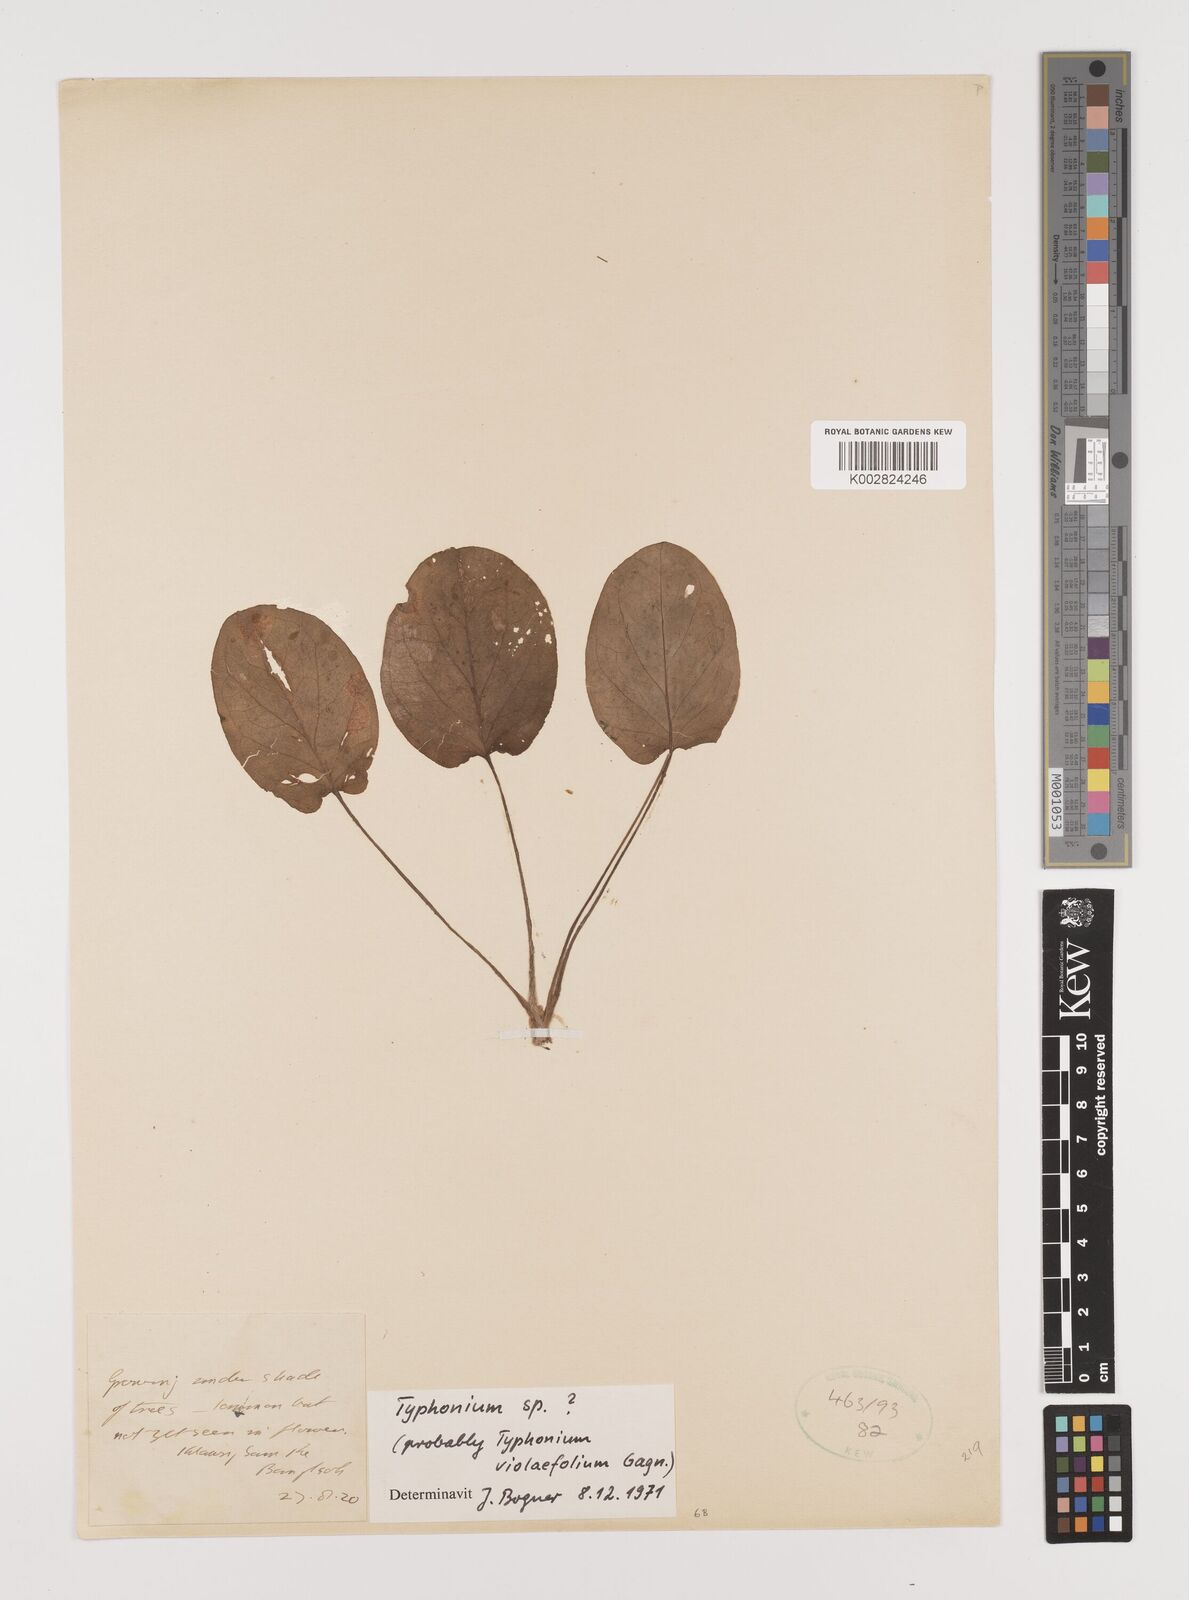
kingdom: Plantae
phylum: Tracheophyta
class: Liliopsida
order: Alismatales
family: Araceae
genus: Typhonium
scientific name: Typhonium violifolium
